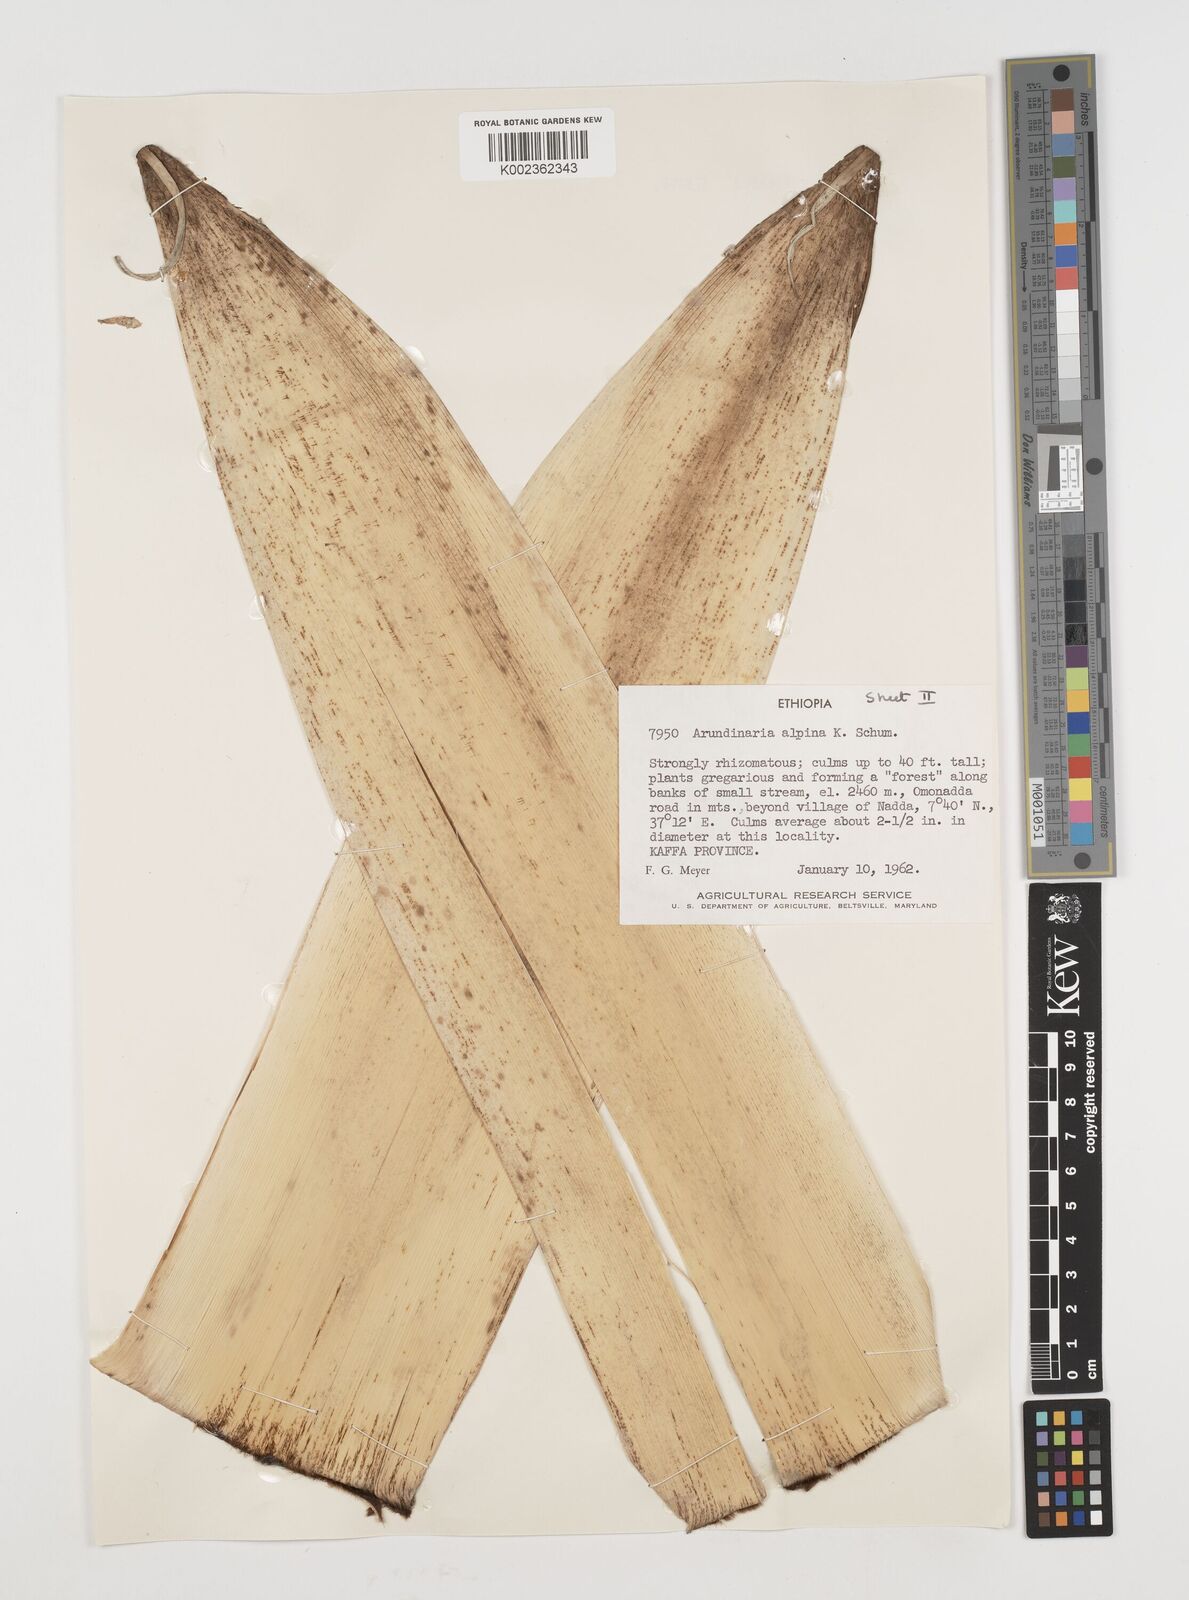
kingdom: Plantae
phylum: Tracheophyta
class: Liliopsida
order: Poales
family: Poaceae
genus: Oldeania
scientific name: Oldeania alpina
